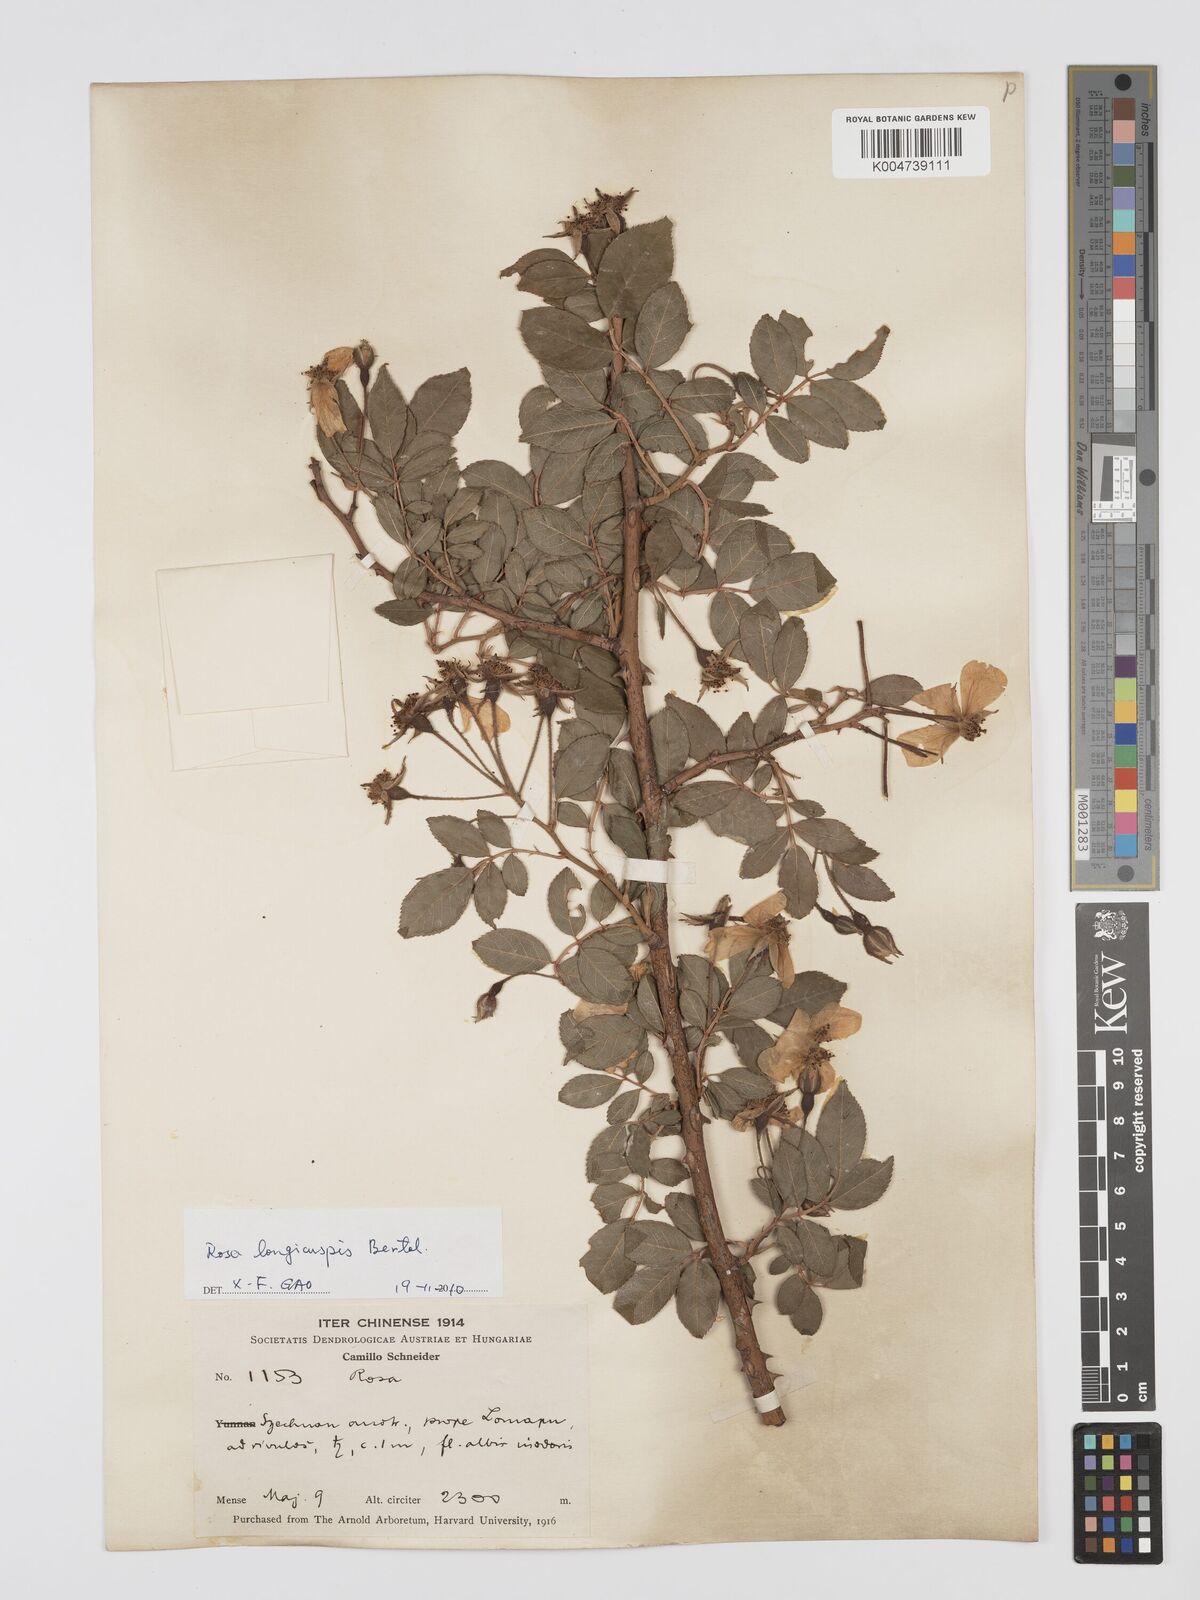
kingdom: Plantae
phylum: Tracheophyta
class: Magnoliopsida
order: Rosales
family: Rosaceae
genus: Rosa
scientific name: Rosa longicuspis
